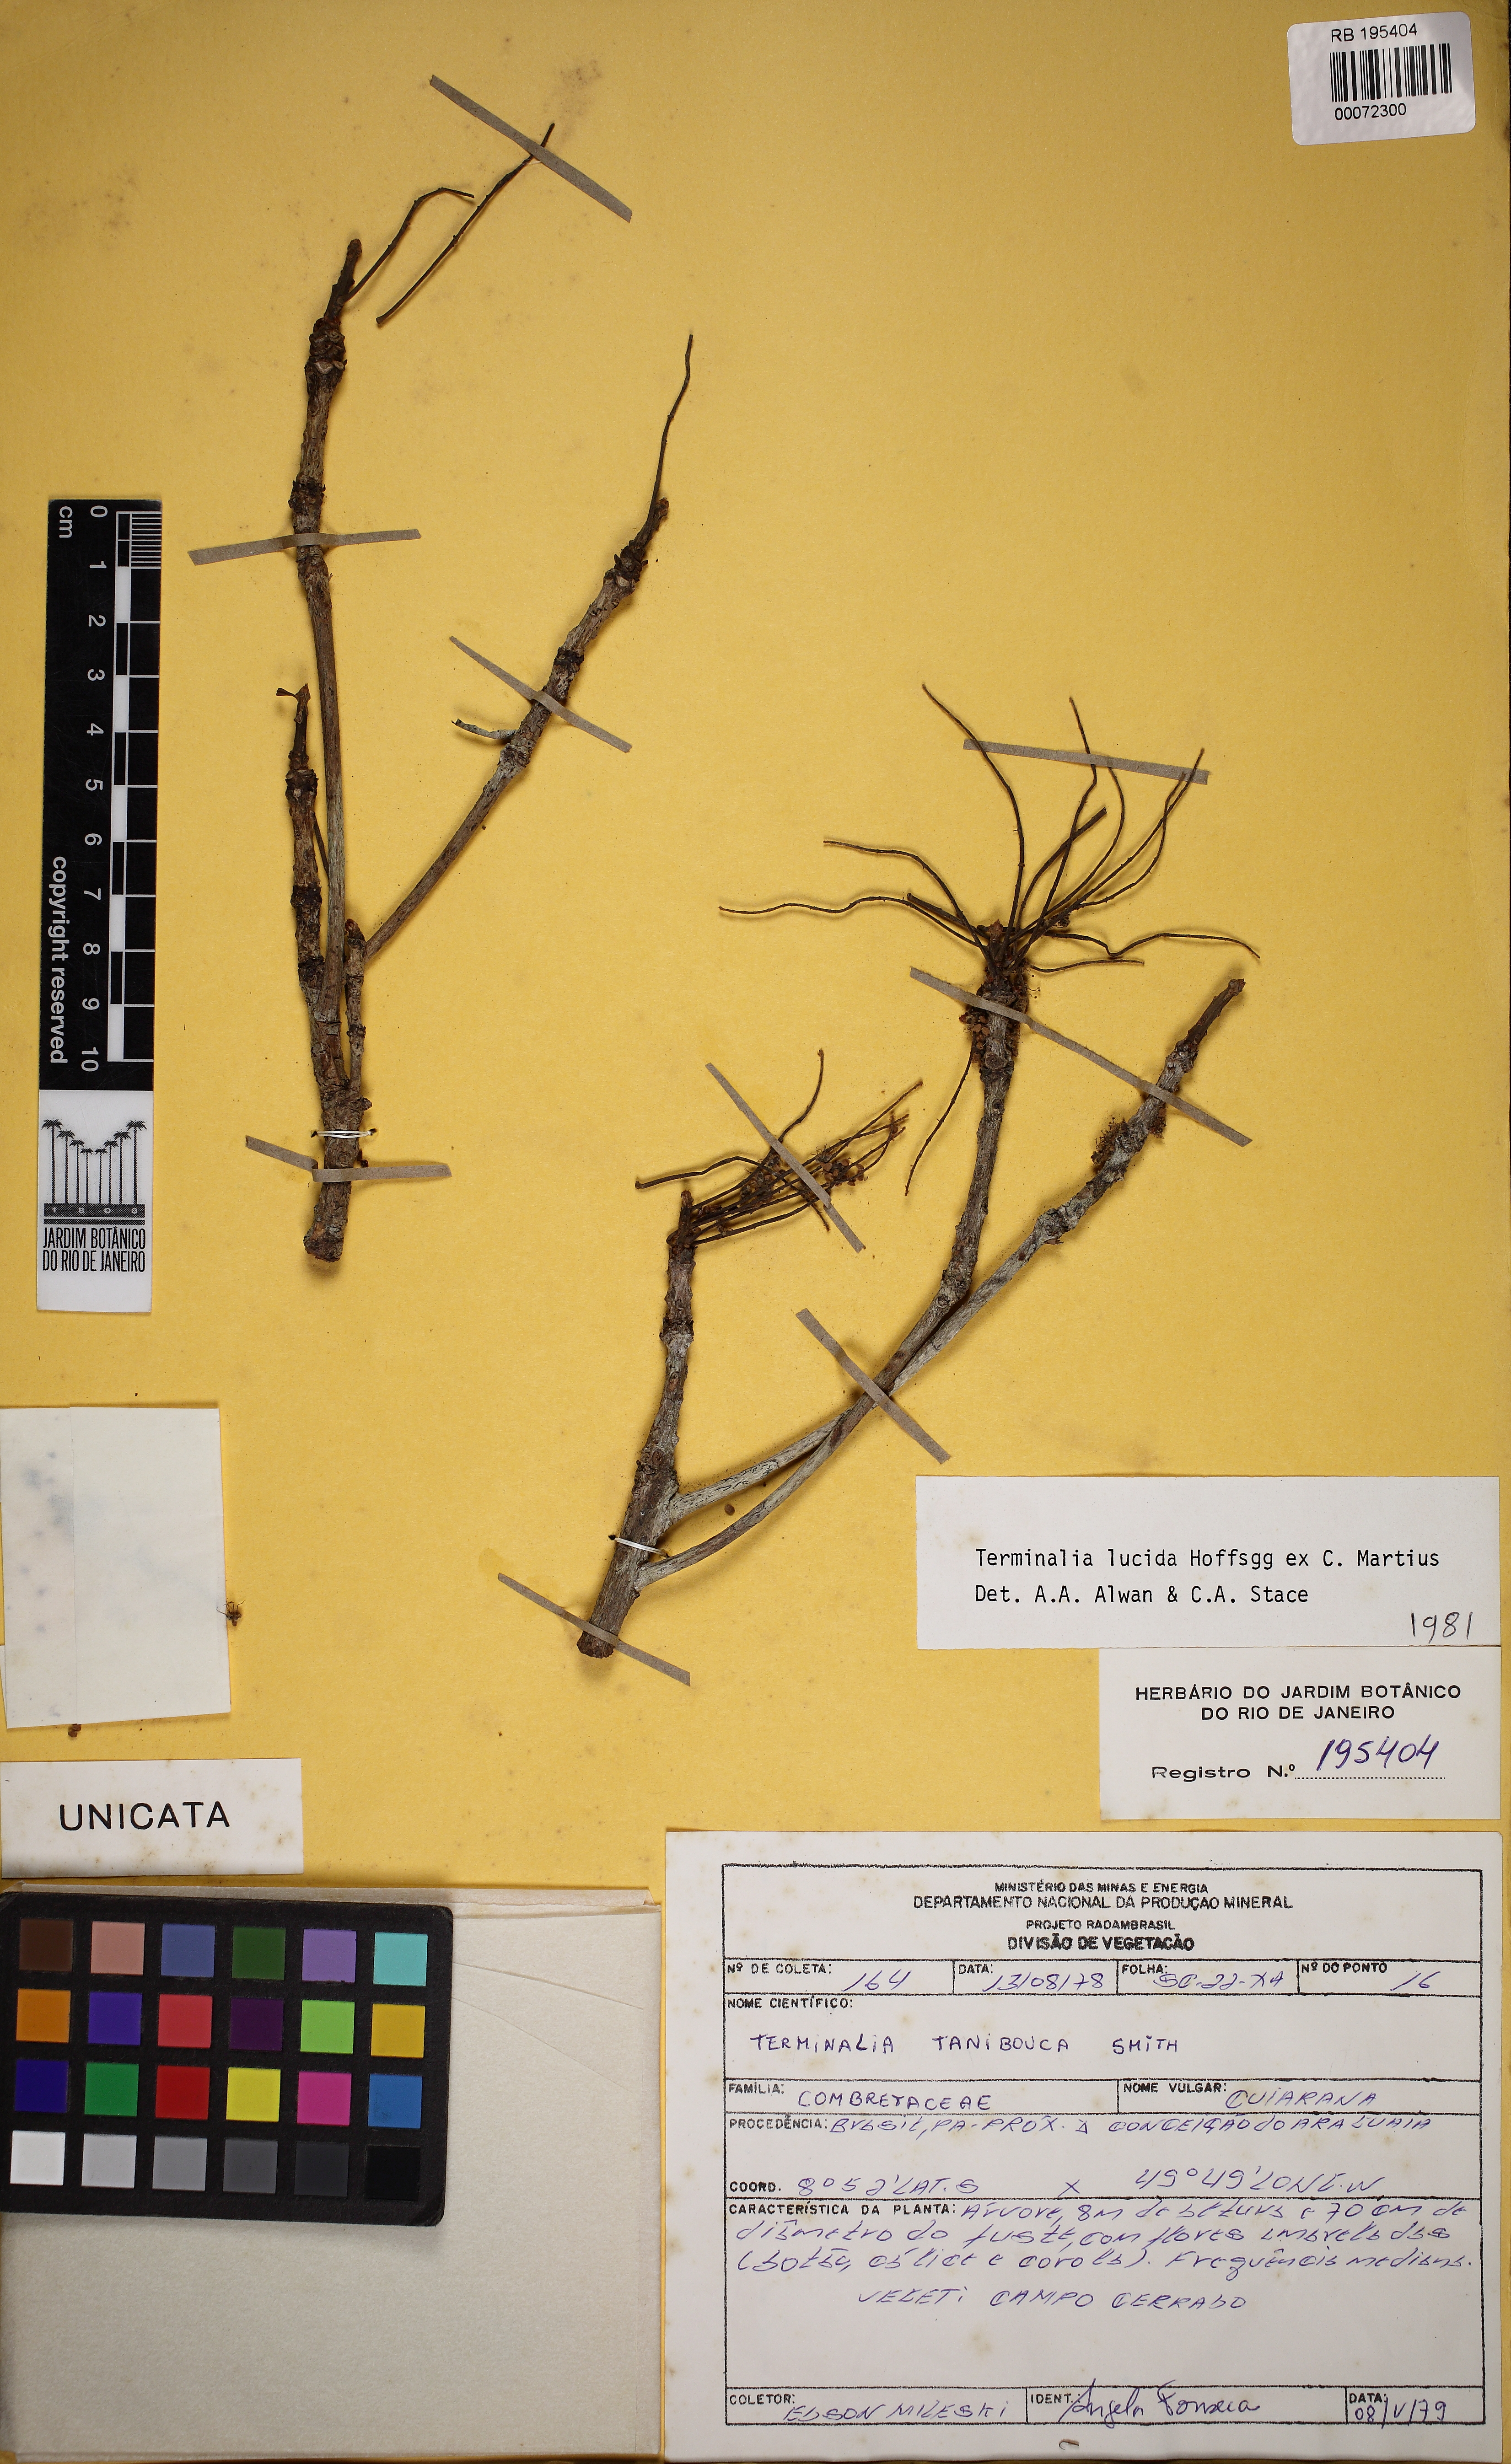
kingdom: Plantae
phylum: Tracheophyta
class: Magnoliopsida
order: Myrtales
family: Combretaceae
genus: Terminalia
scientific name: Terminalia lucida
